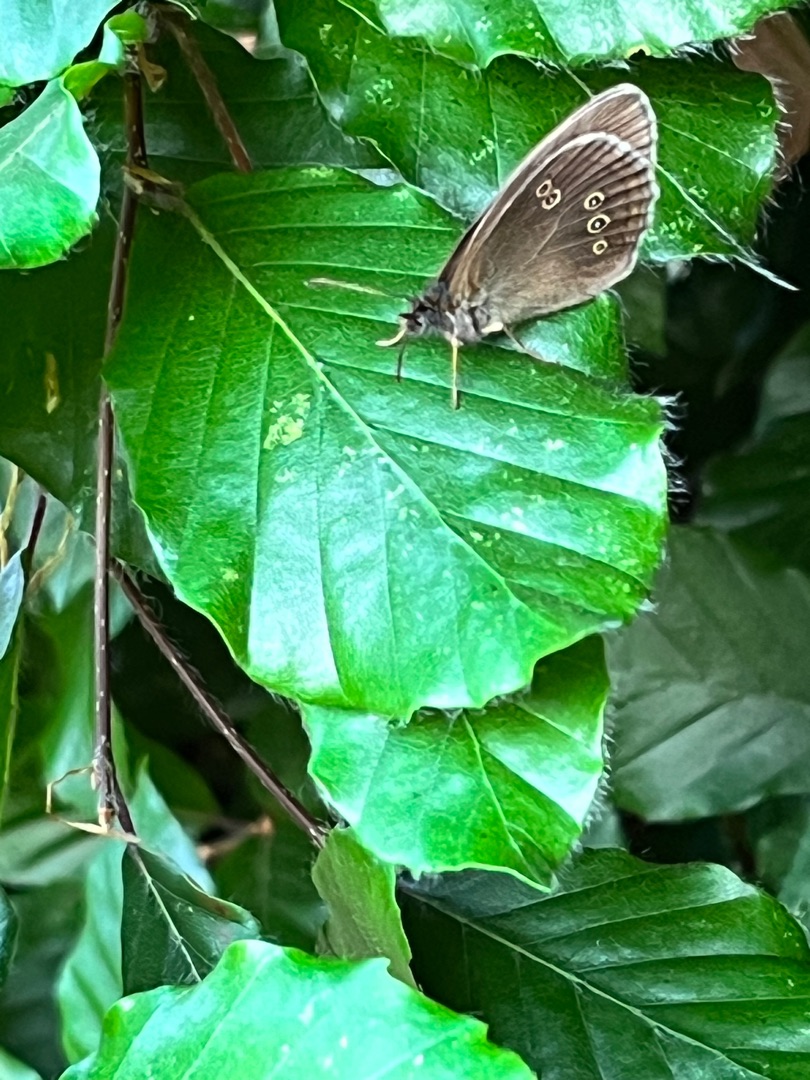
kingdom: Animalia
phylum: Arthropoda
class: Insecta
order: Lepidoptera
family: Nymphalidae
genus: Aphantopus
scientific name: Aphantopus hyperantus
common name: Engrandøje
